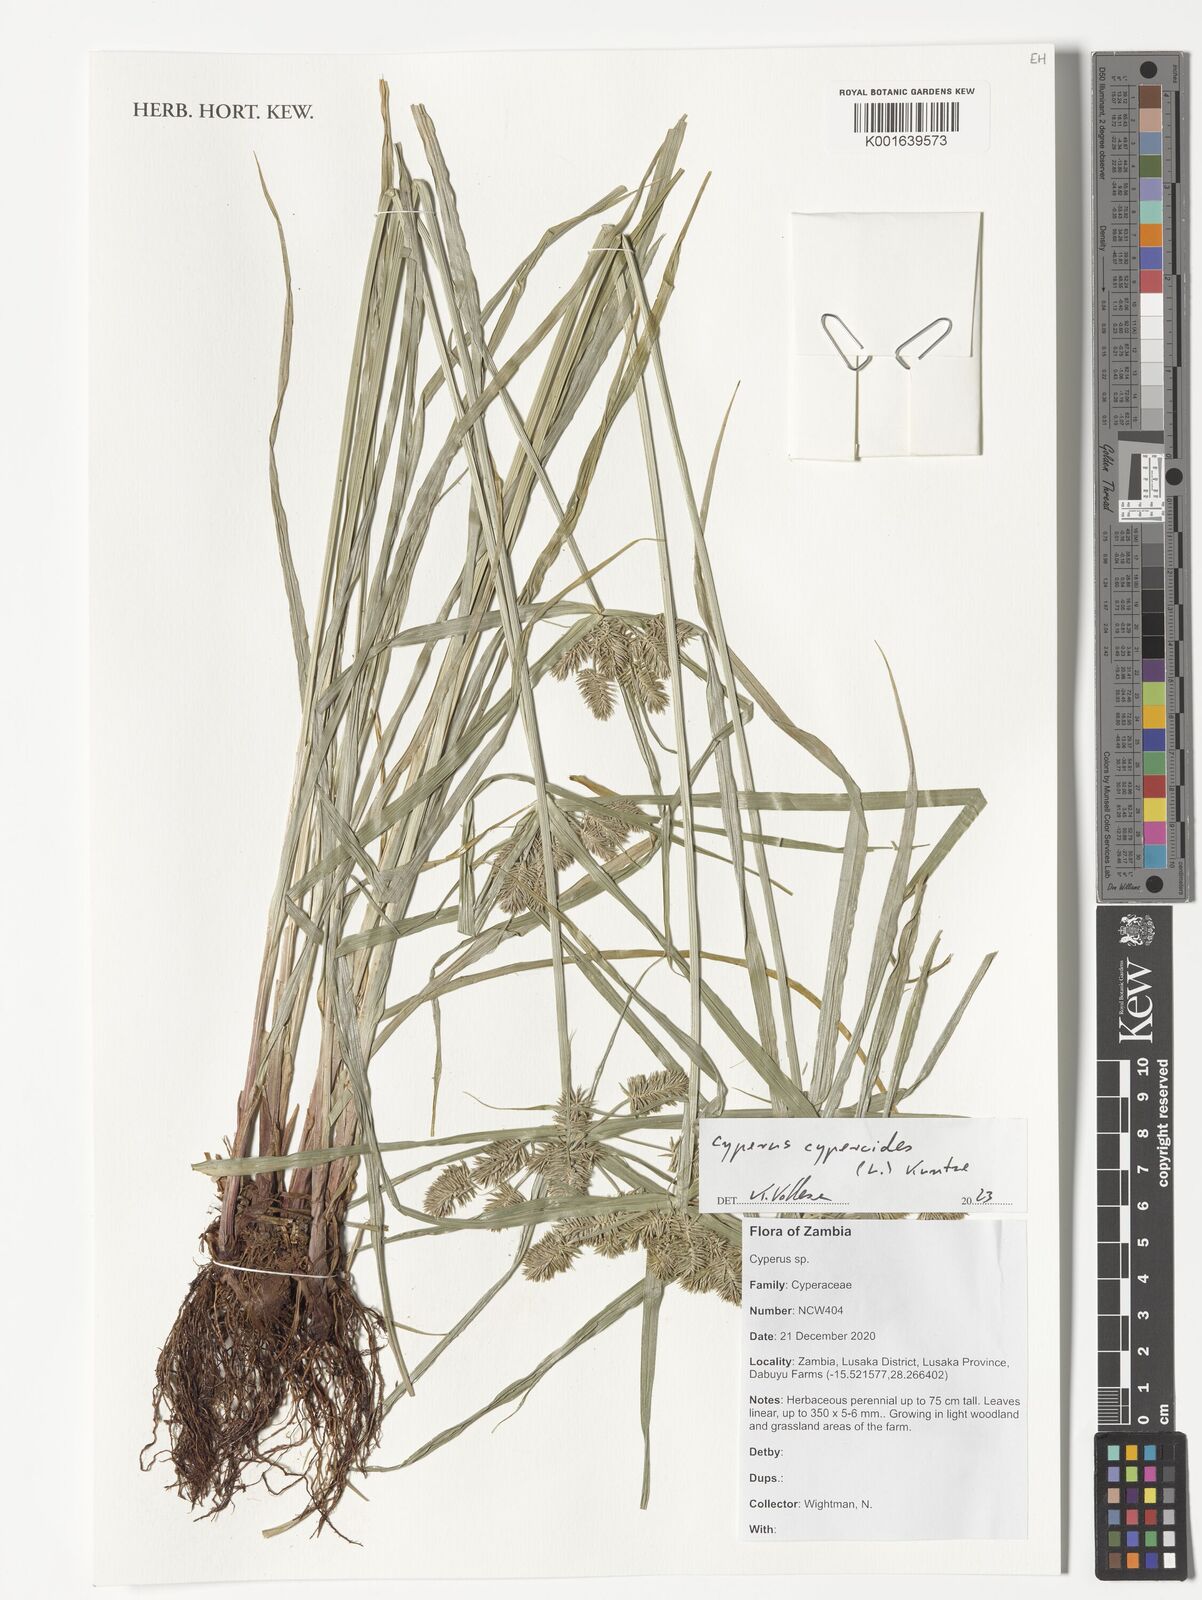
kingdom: Plantae
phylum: Tracheophyta
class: Liliopsida
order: Poales
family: Cyperaceae
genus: Cyperus
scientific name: Cyperus cyperoides
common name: Pacific island flat sedge
